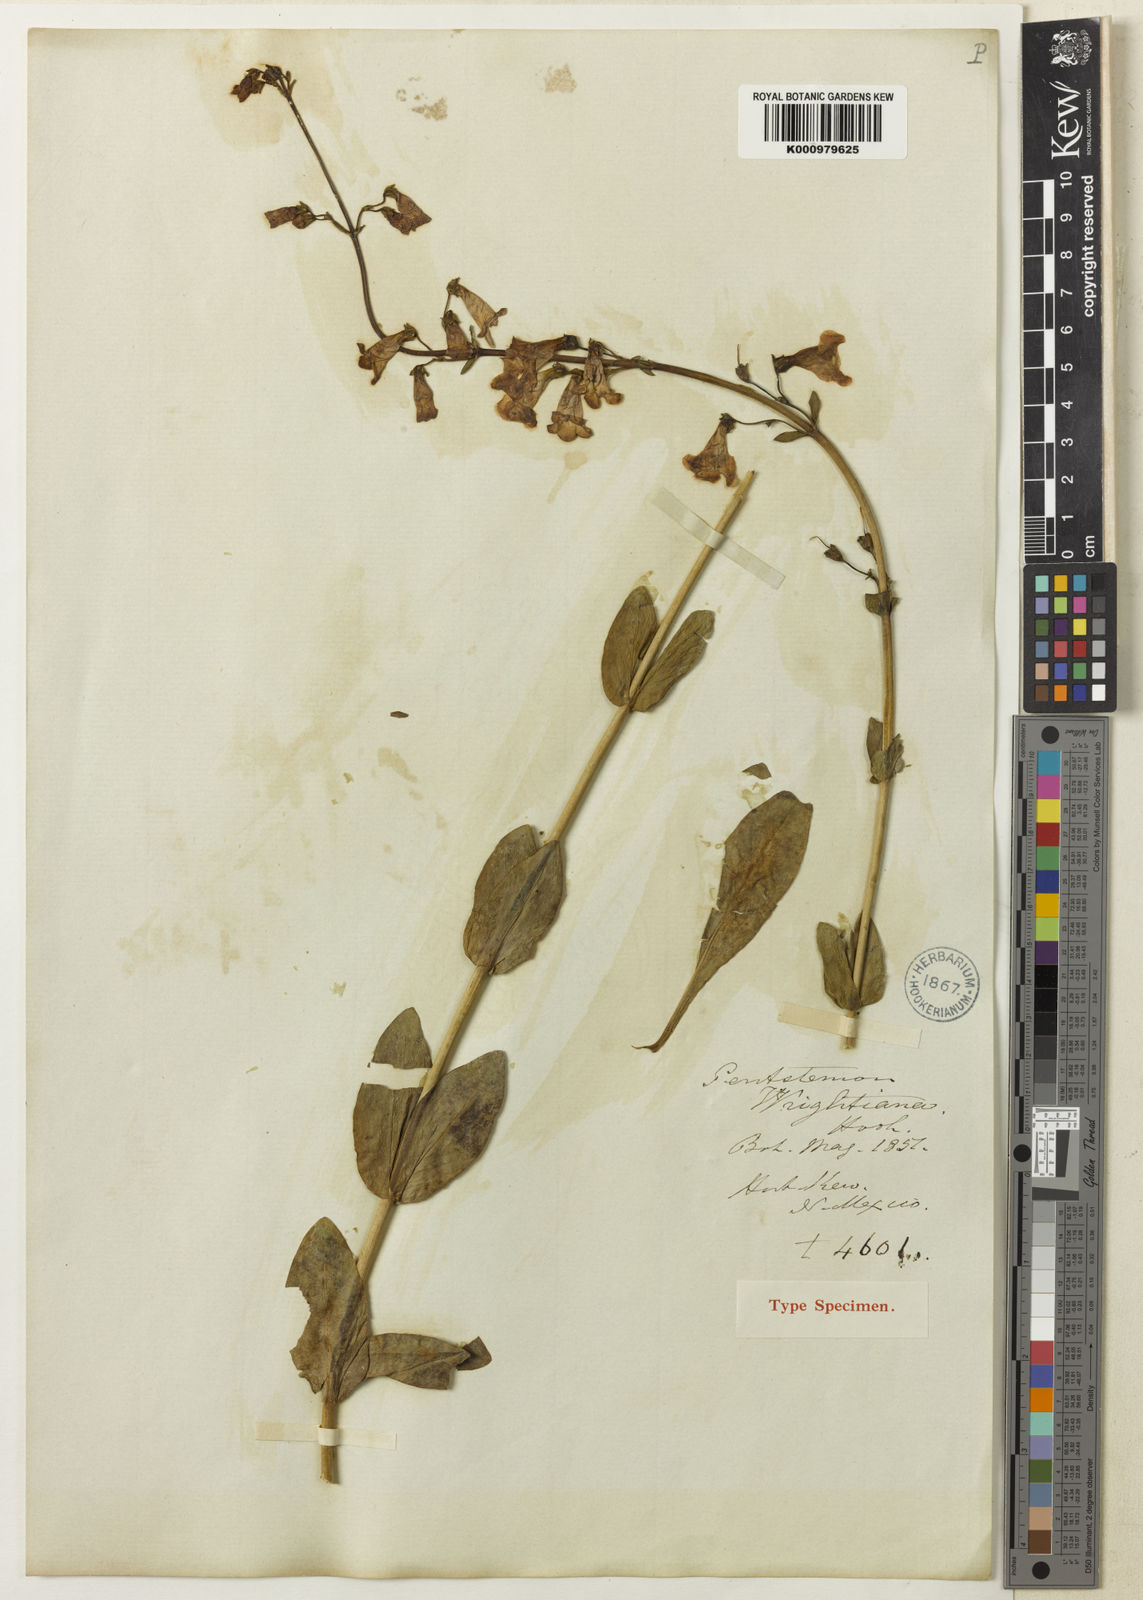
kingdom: Plantae
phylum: Tracheophyta
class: Magnoliopsida
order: Lamiales
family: Plantaginaceae
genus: Penstemon
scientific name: Penstemon wrightii
